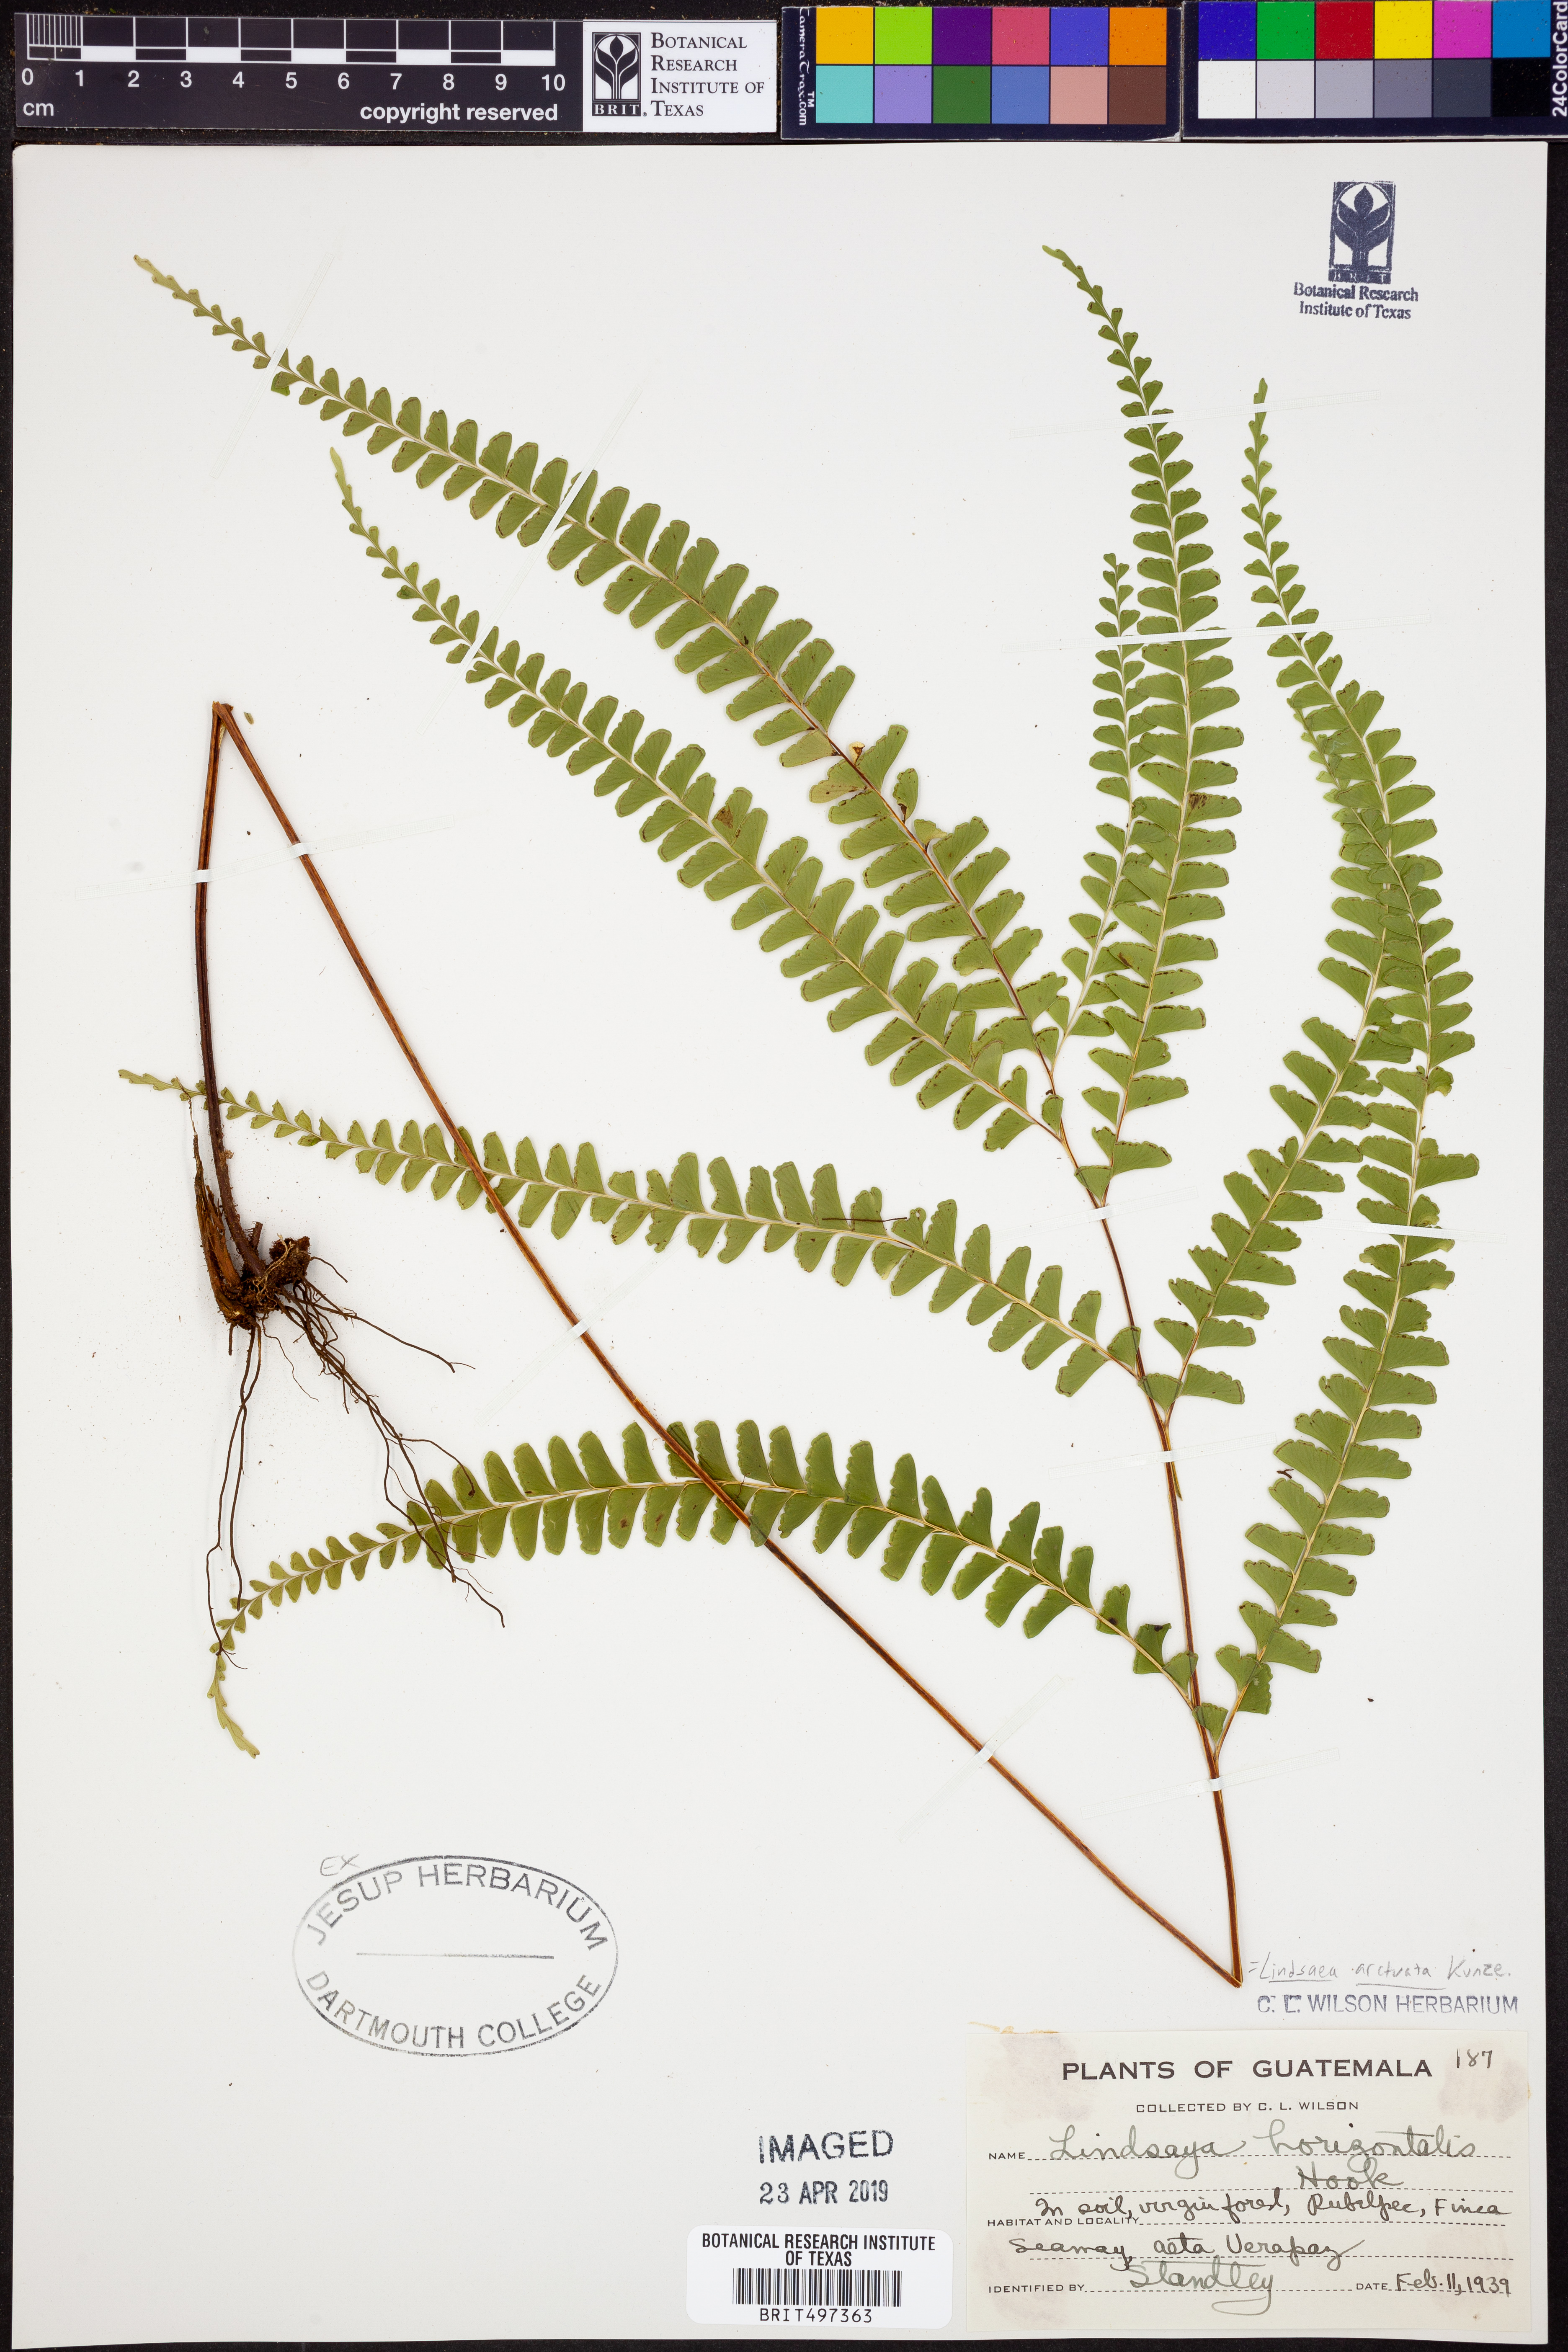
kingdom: Plantae
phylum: Tracheophyta
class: Polypodiopsida
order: Polypodiales
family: Lindsaeaceae
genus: Lindsaea
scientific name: Lindsaea arcuata
